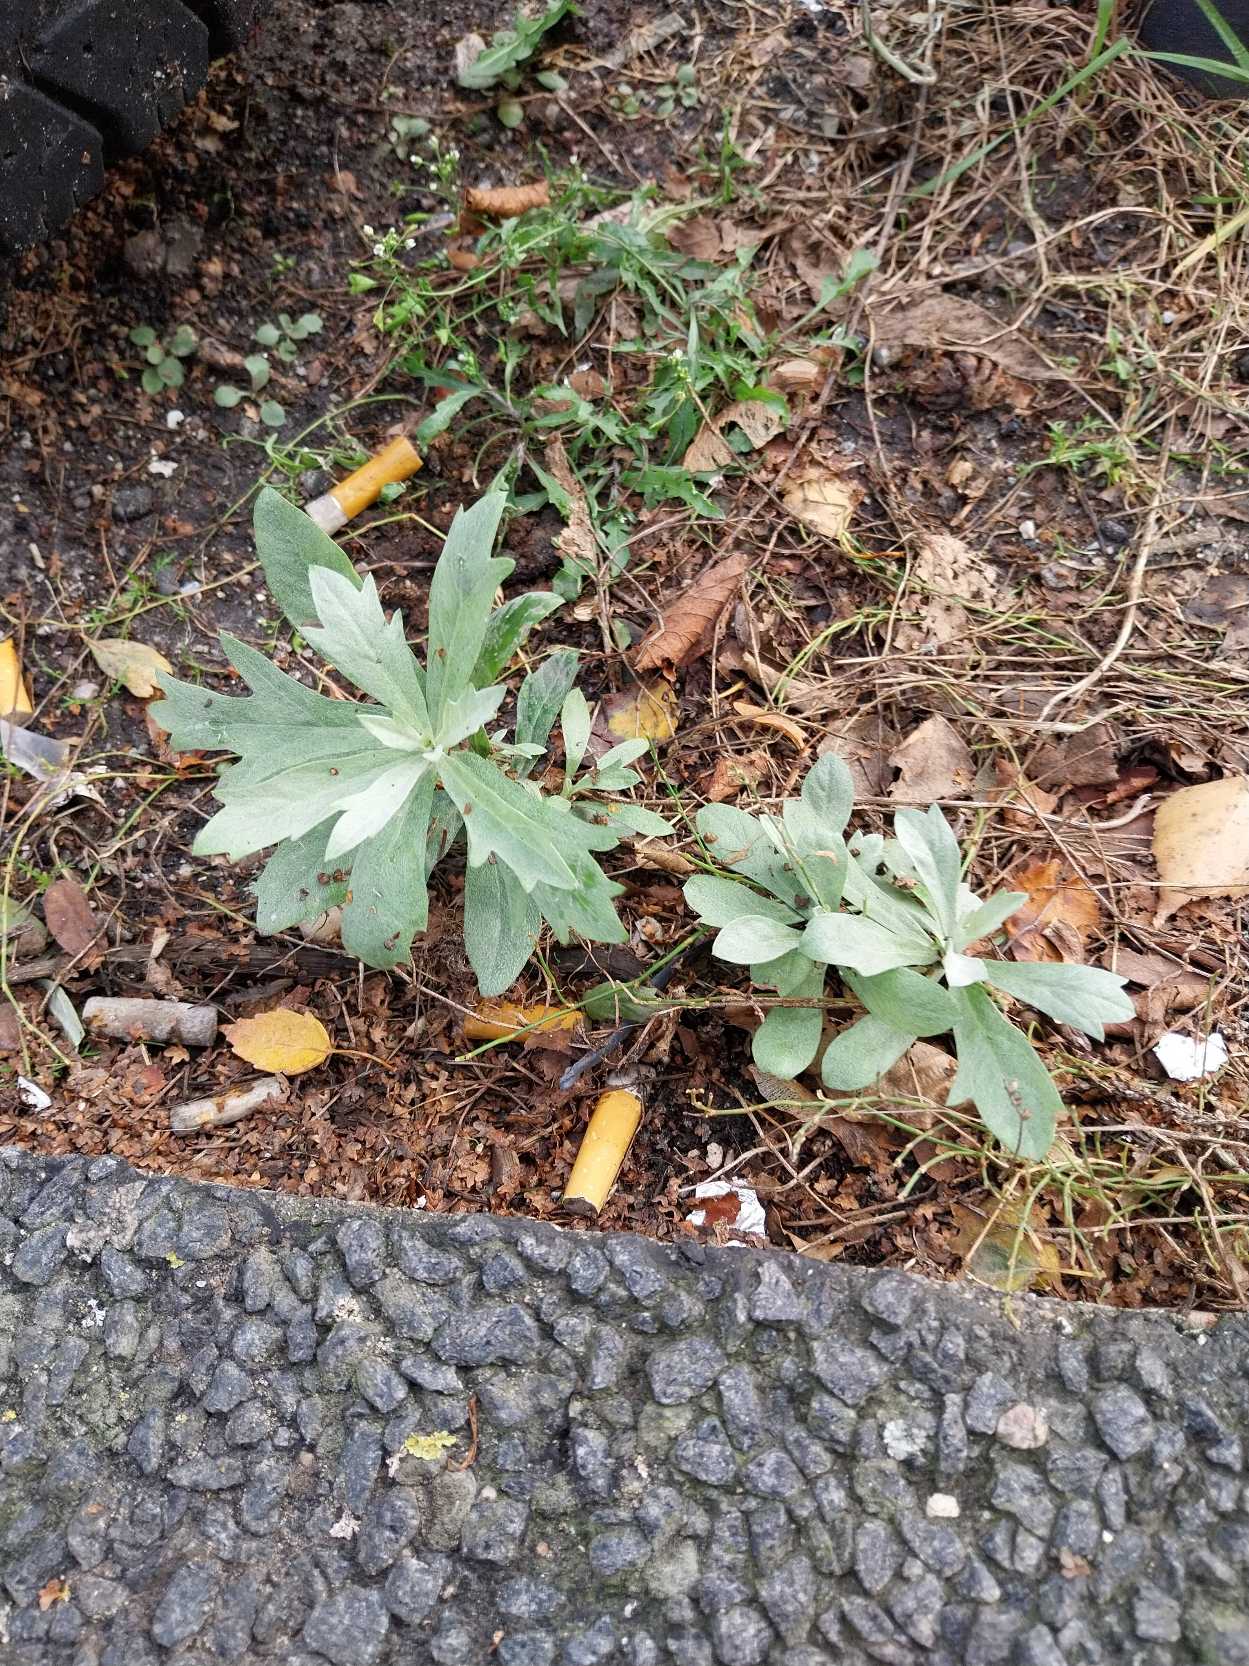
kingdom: Plantae
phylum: Tracheophyta
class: Magnoliopsida
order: Asterales
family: Asteraceae
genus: Artemisia
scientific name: Artemisia ludoviciana
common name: Hvid bynke
